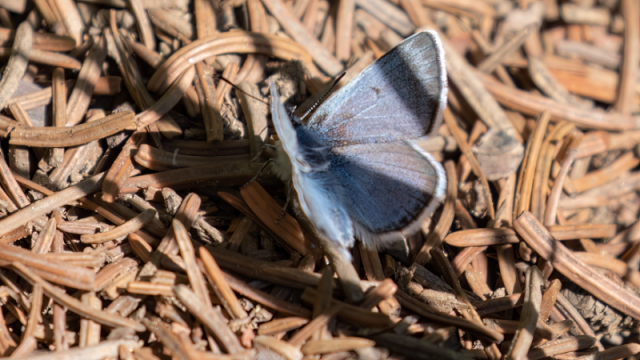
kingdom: Animalia
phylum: Arthropoda
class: Insecta
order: Lepidoptera
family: Lycaenidae
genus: Glaucopsyche
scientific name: Glaucopsyche lygdamus
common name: Silvery Blue
